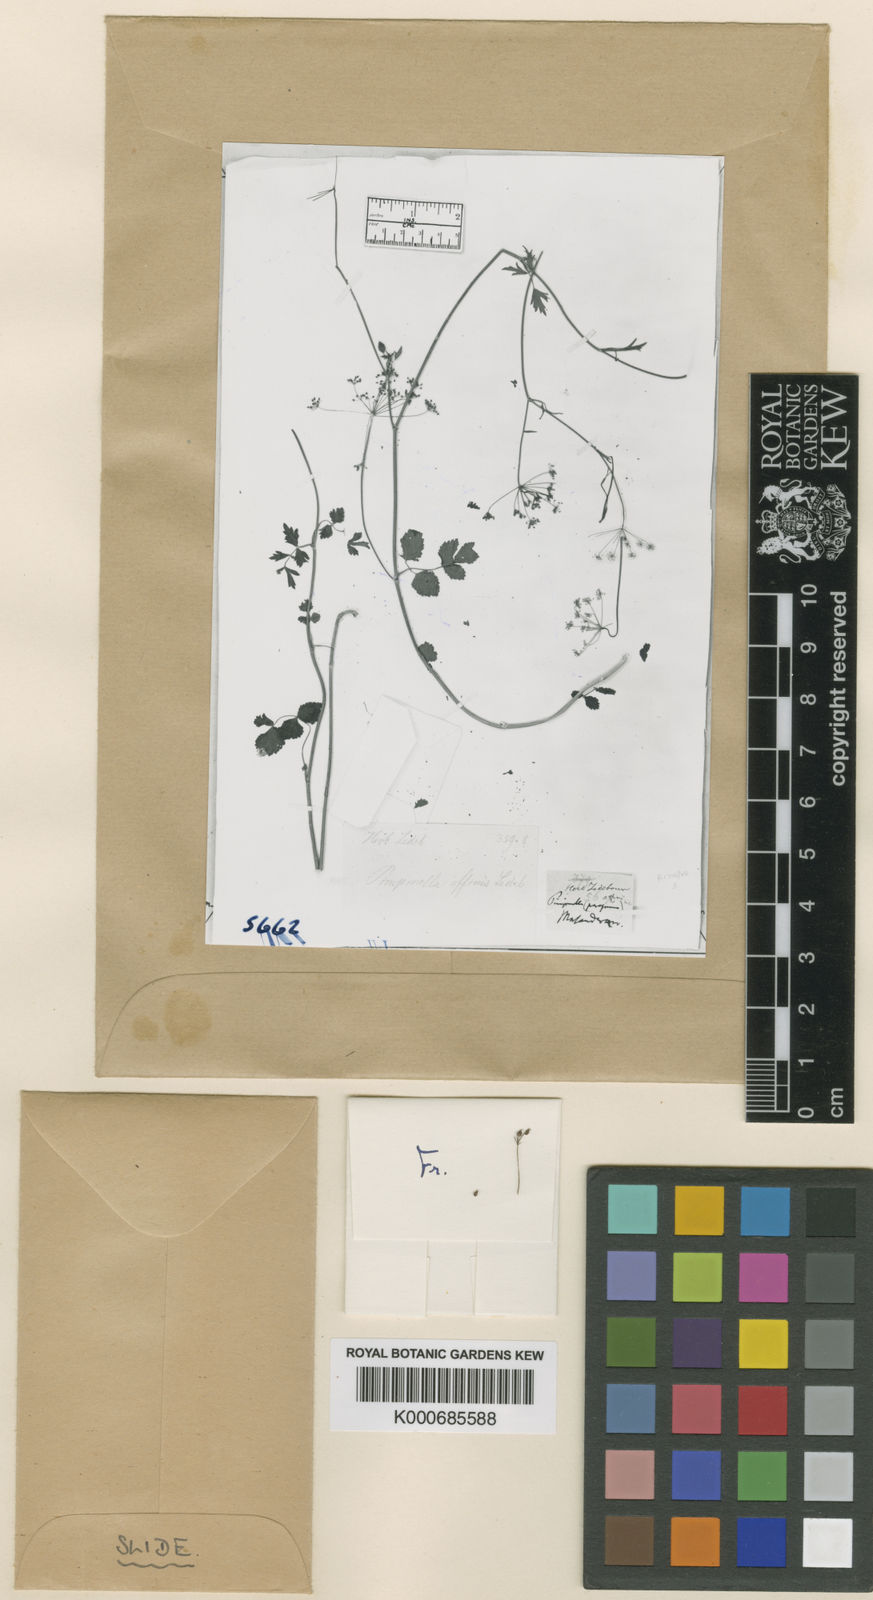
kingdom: Plantae
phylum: Tracheophyta
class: Magnoliopsida
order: Apiales
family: Apiaceae
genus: Pimpinella
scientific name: Pimpinella affinis
